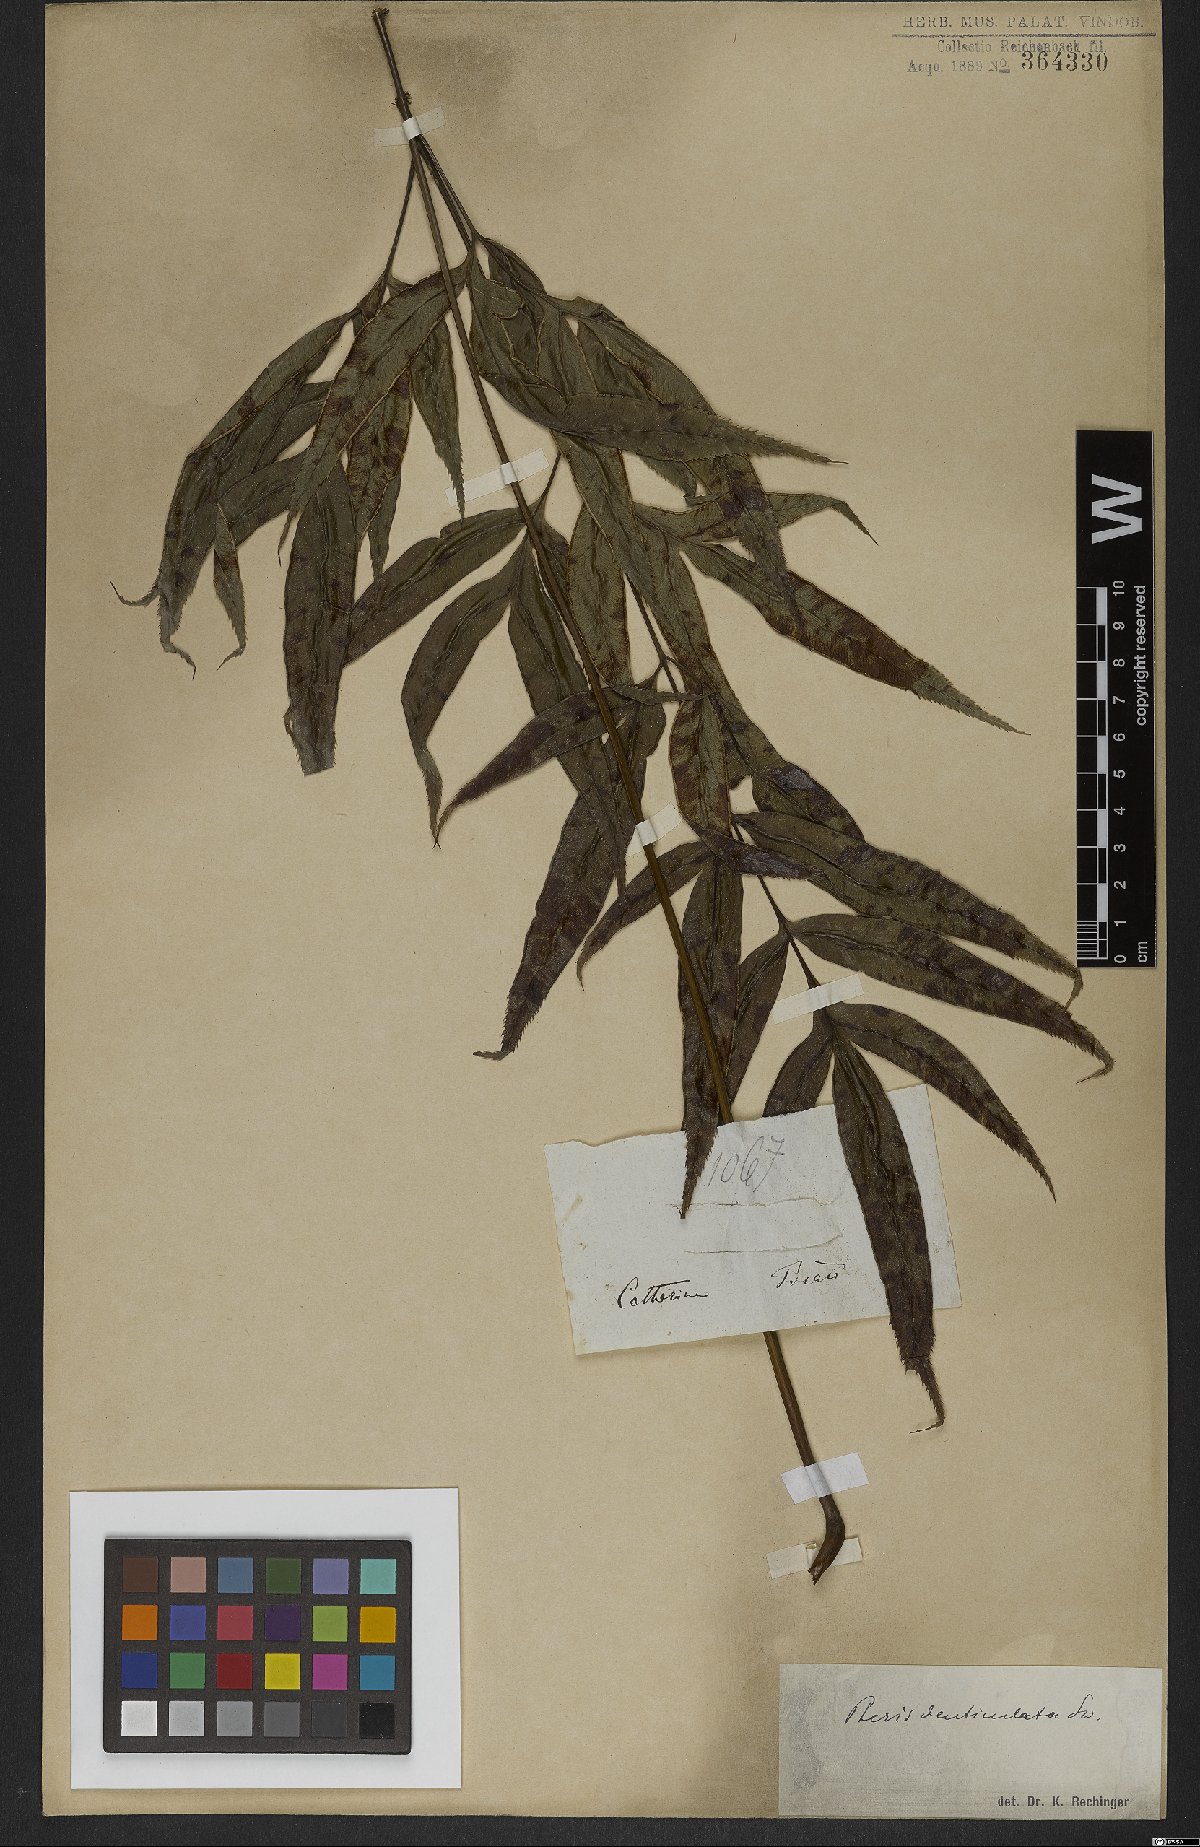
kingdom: Plantae
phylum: Tracheophyta
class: Polypodiopsida
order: Polypodiales
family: Pteridaceae
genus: Pteris
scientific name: Pteris denticulata
